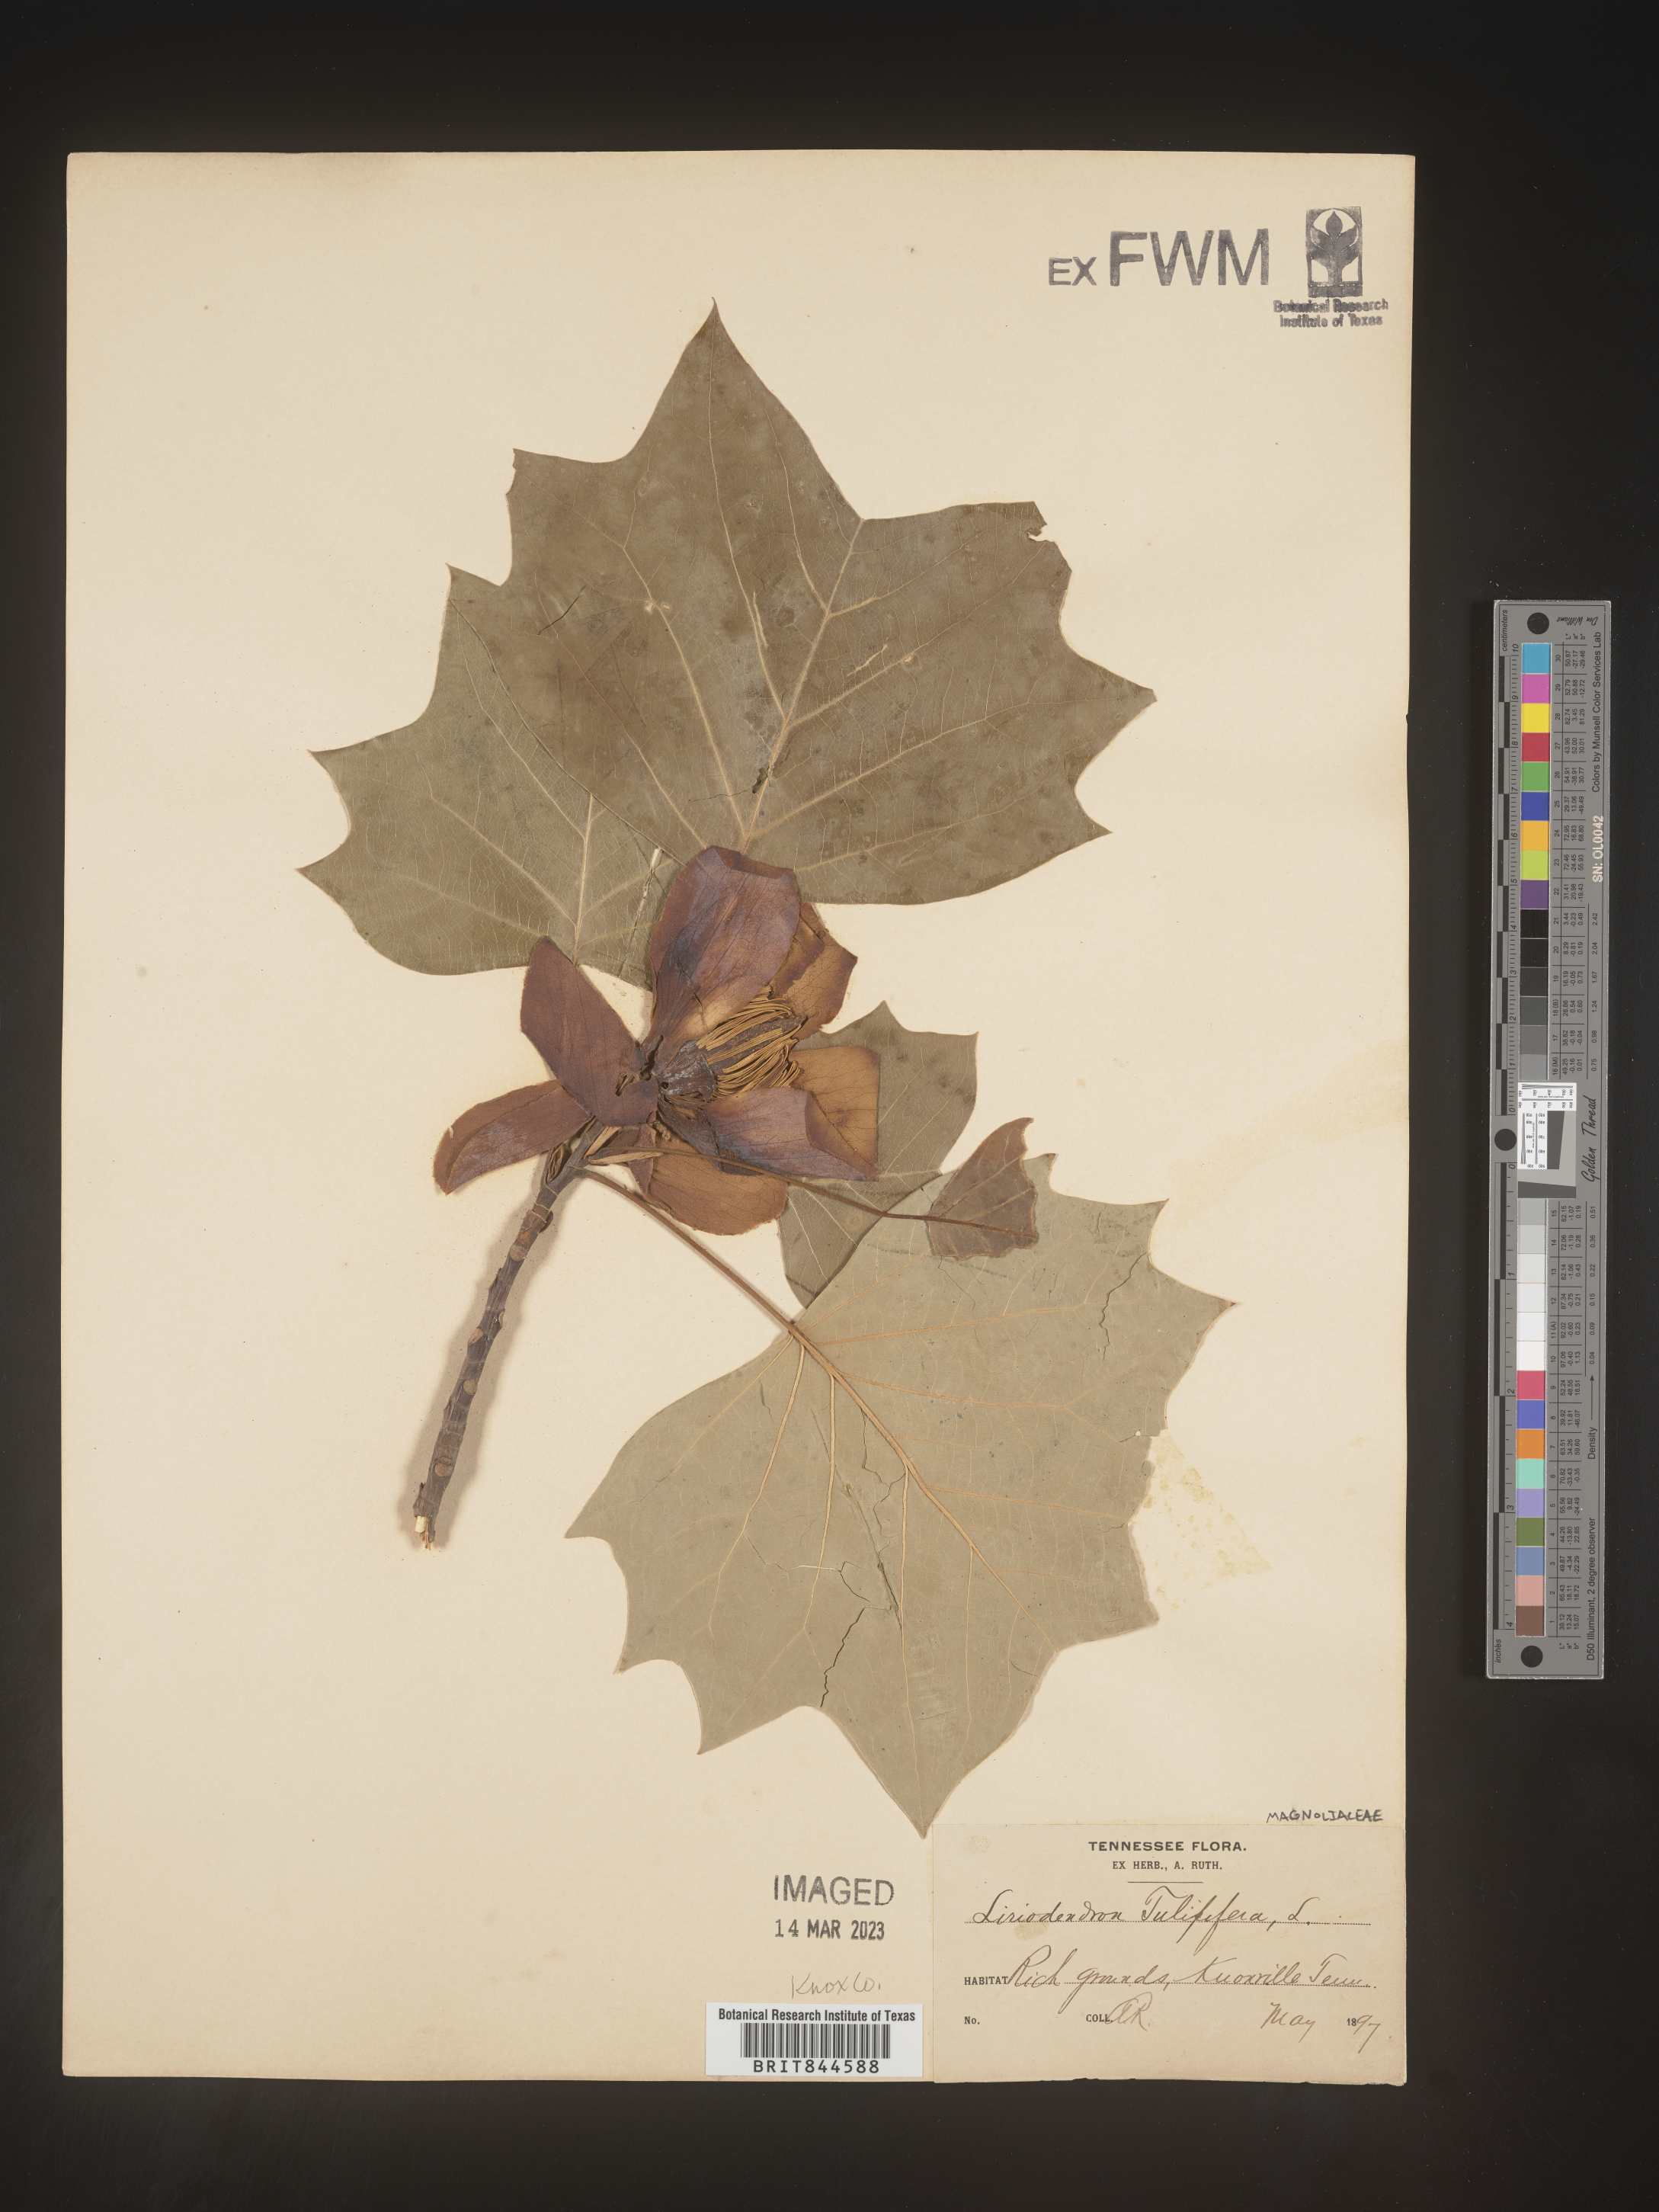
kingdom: Plantae
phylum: Tracheophyta
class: Magnoliopsida
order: Magnoliales
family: Magnoliaceae
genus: Liriodendron
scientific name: Liriodendron tulipifera
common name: Tulip tree
